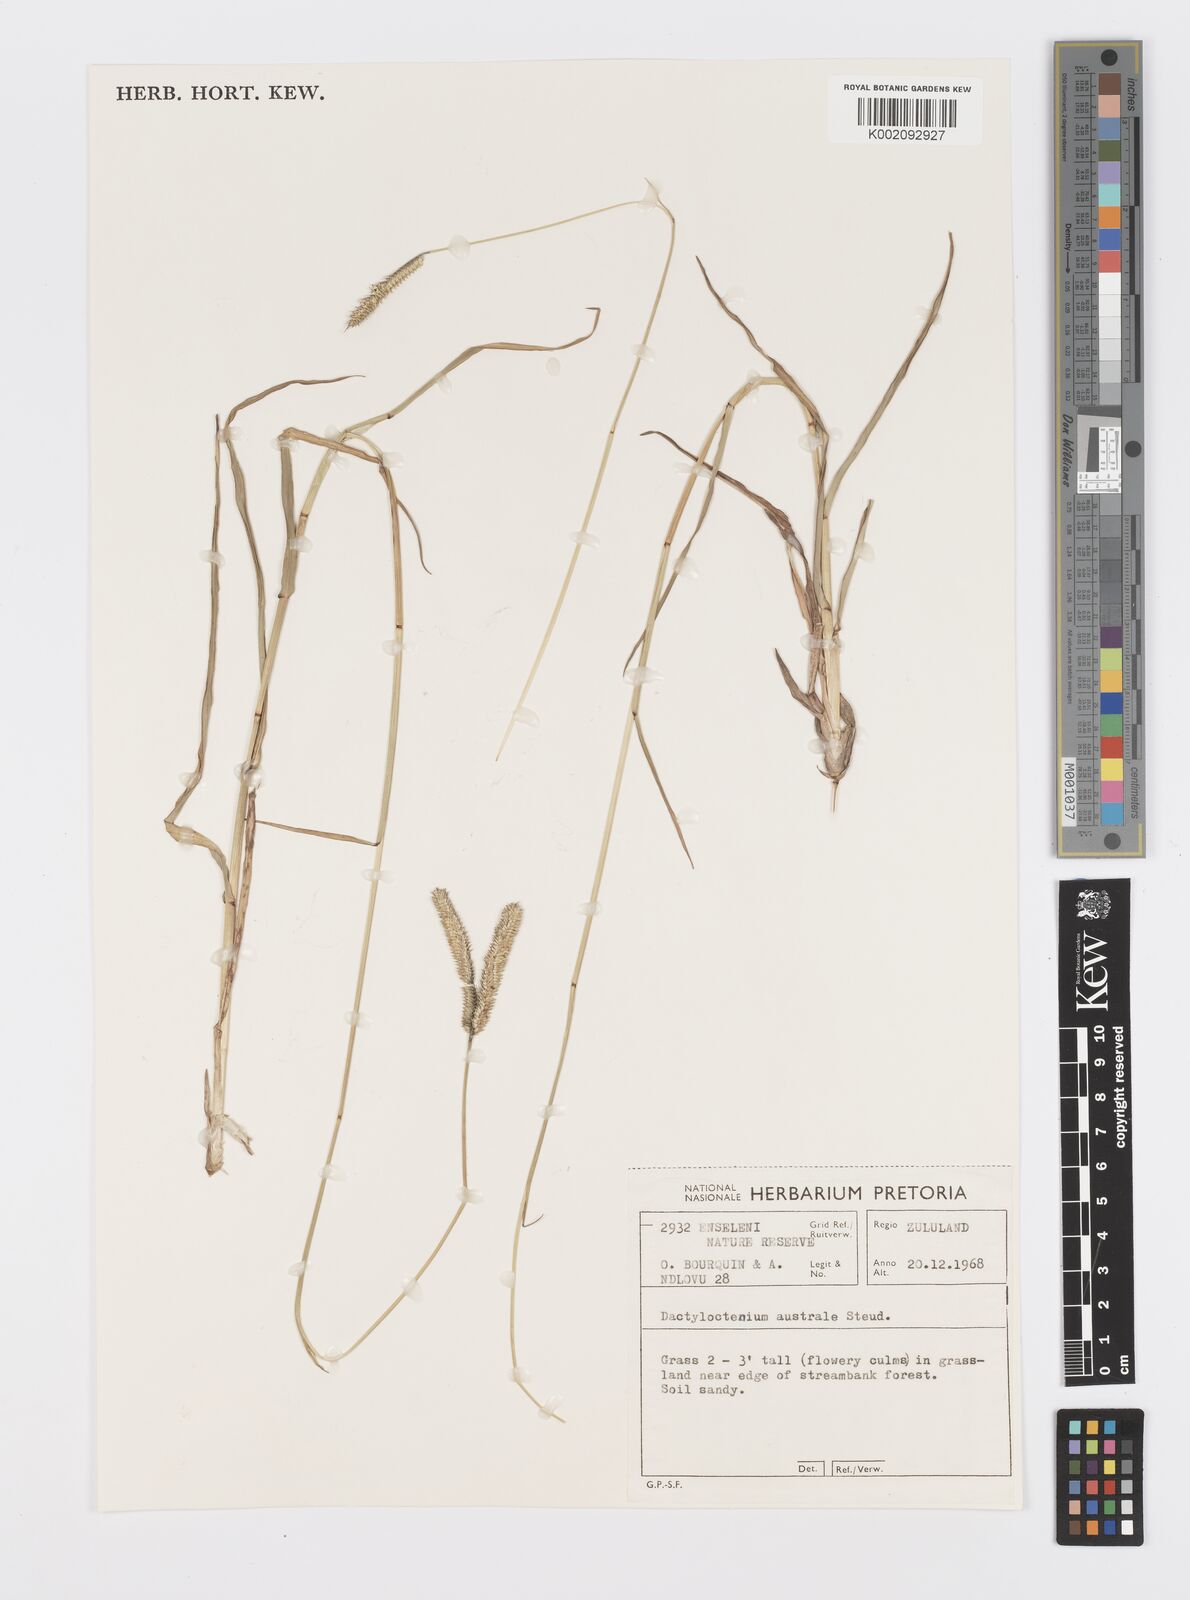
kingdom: Plantae
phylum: Tracheophyta
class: Liliopsida
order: Poales
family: Poaceae
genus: Dactyloctenium
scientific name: Dactyloctenium geminatum
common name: Crowsfoot grass
